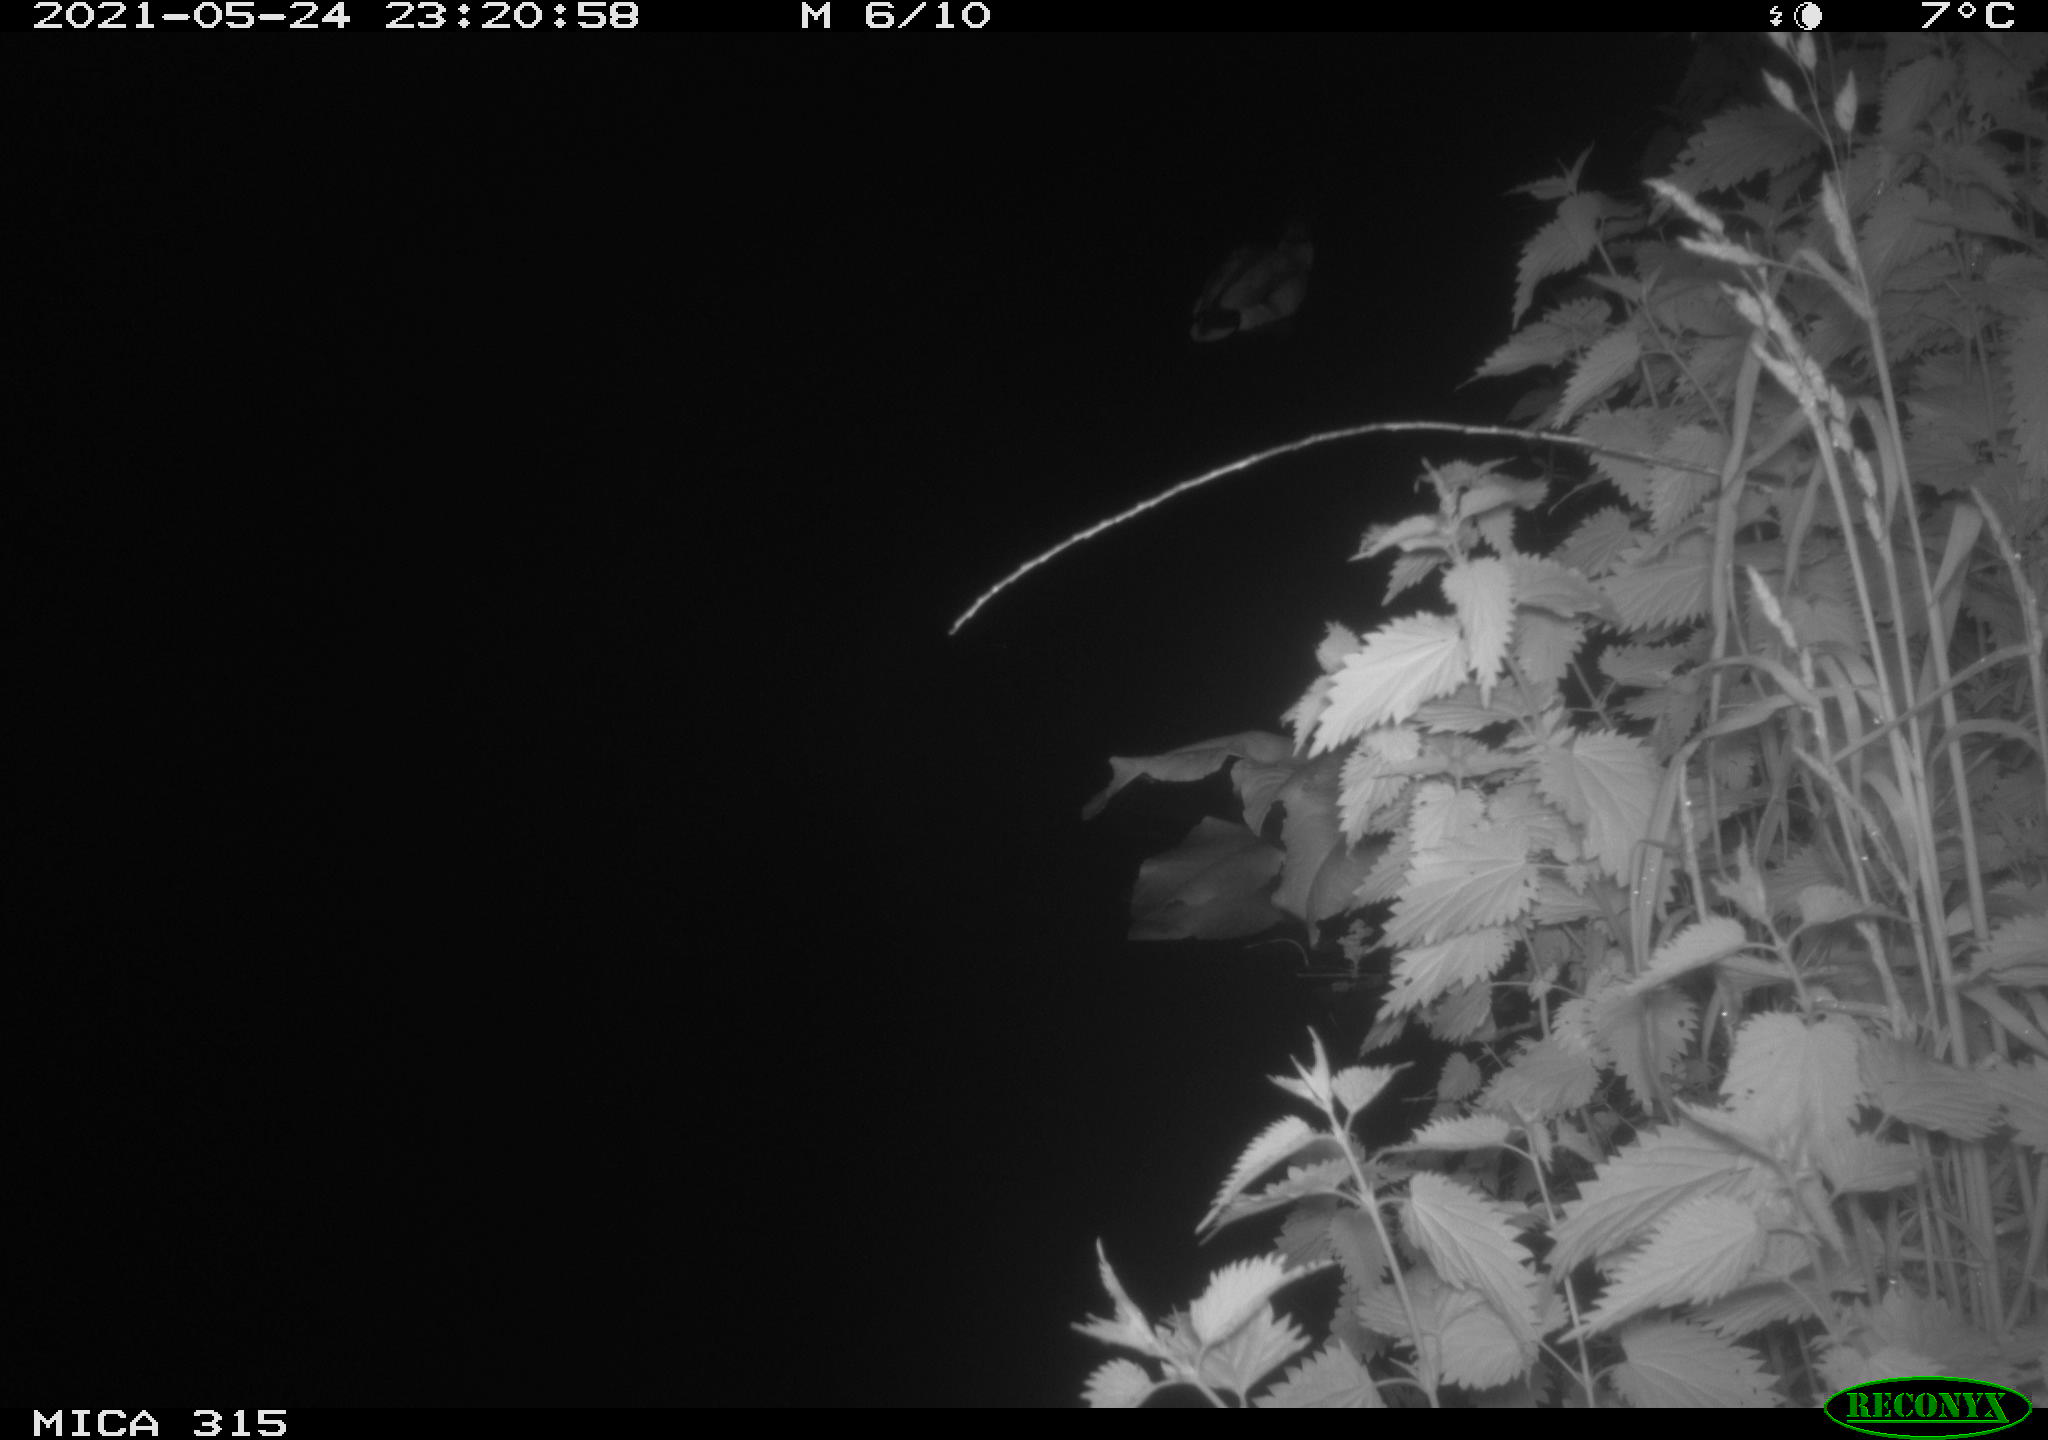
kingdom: Animalia
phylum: Chordata
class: Aves
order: Anseriformes
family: Anatidae
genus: Anas
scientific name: Anas
